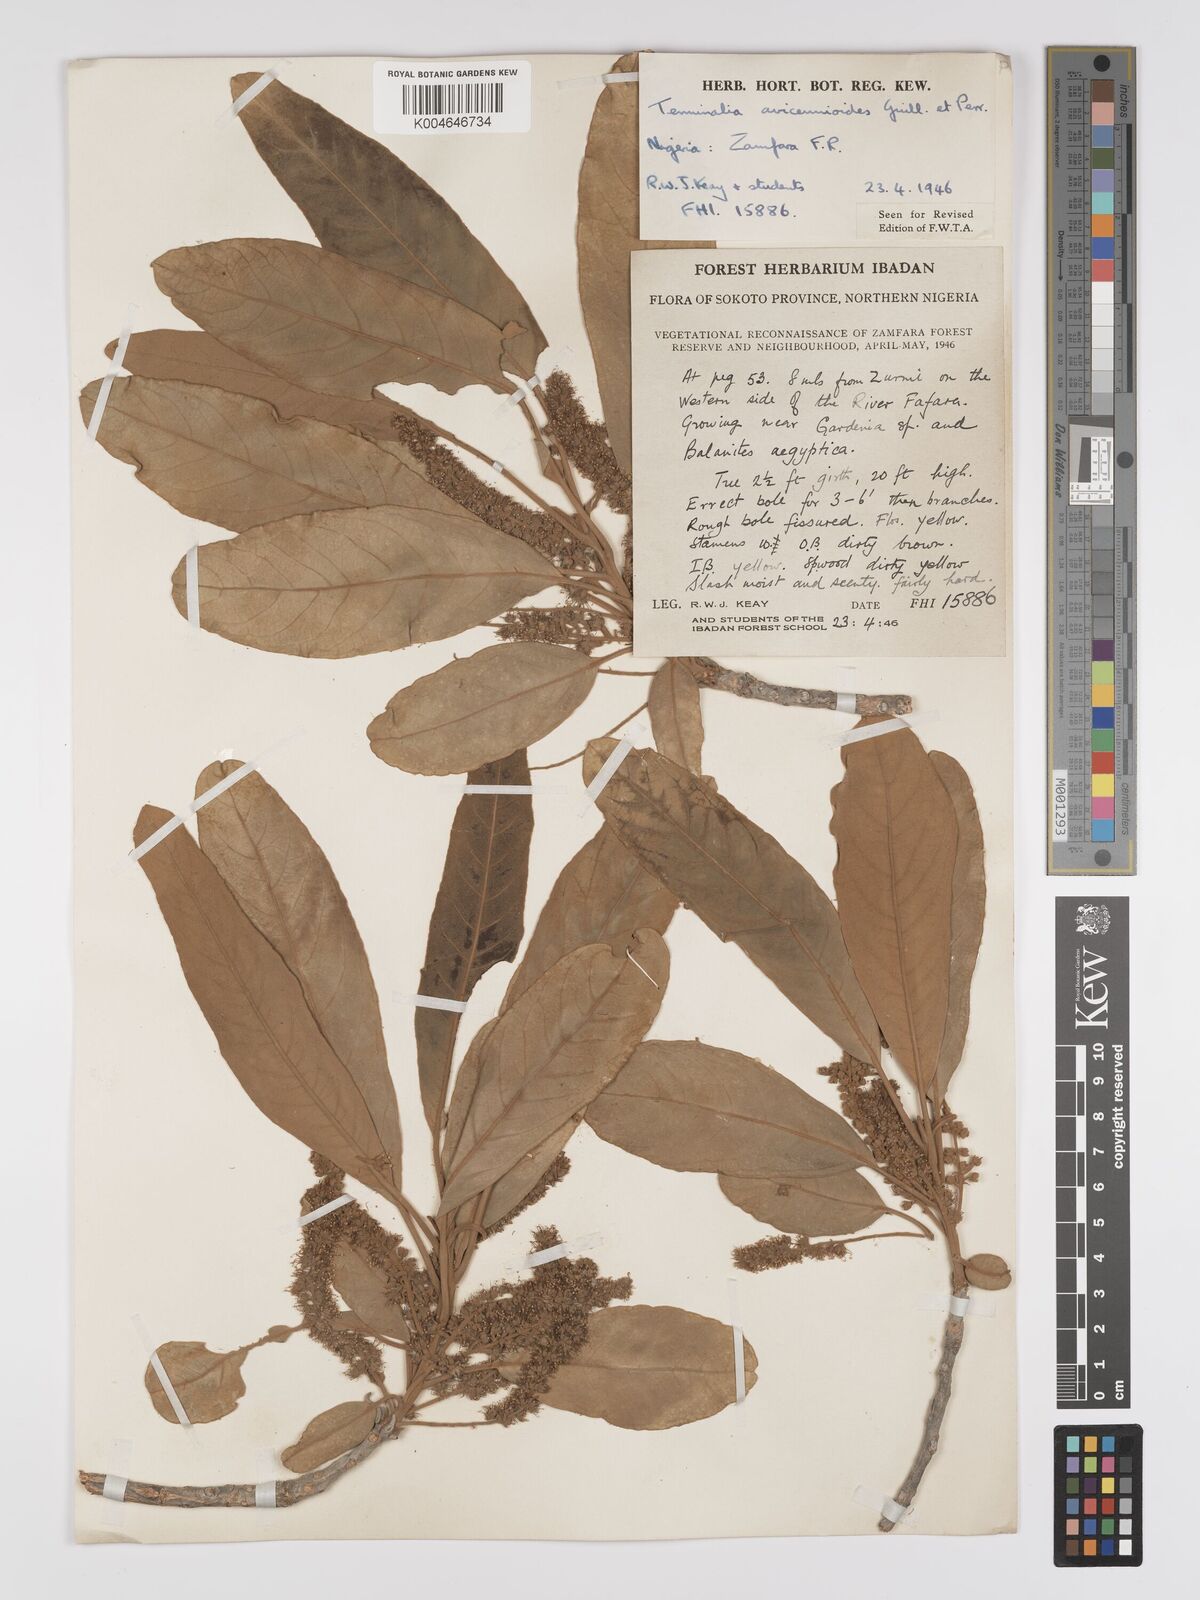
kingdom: Plantae
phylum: Tracheophyta
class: Magnoliopsida
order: Myrtales
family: Combretaceae
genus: Terminalia
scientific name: Terminalia avicennioides
